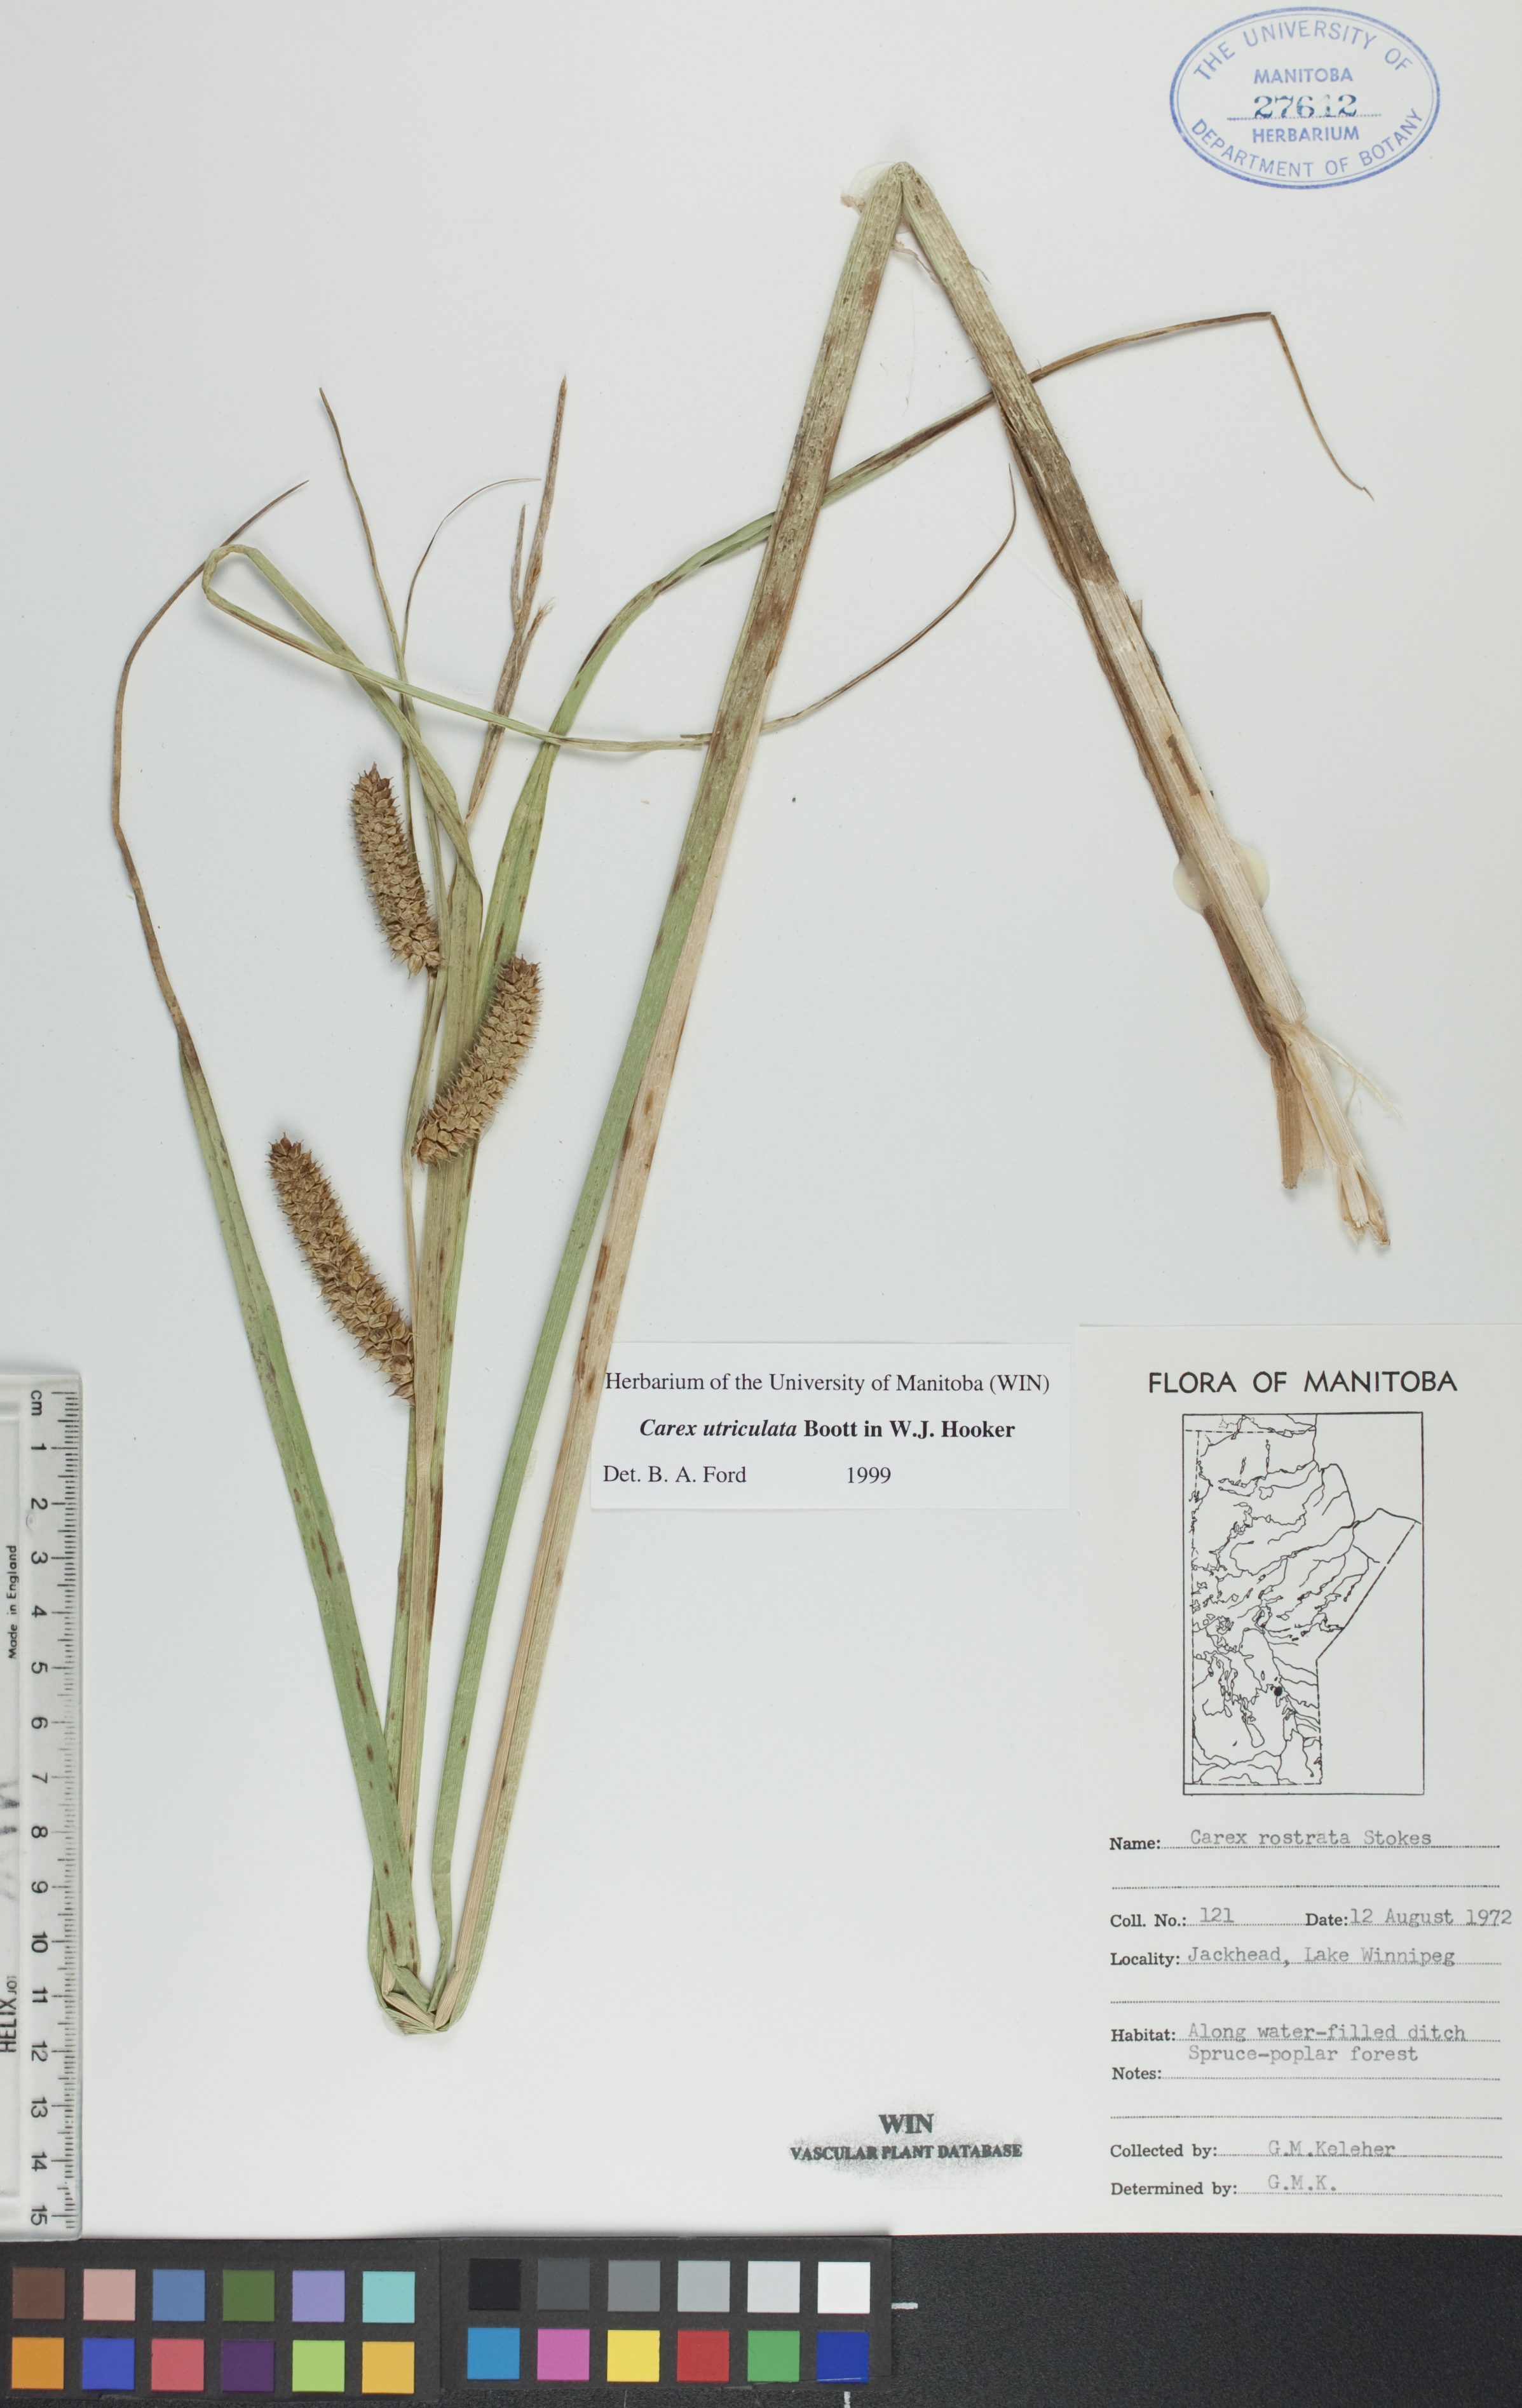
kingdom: Plantae
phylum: Tracheophyta
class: Liliopsida
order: Poales
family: Cyperaceae
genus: Carex
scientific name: Carex utriculata
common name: Beaked sedge
